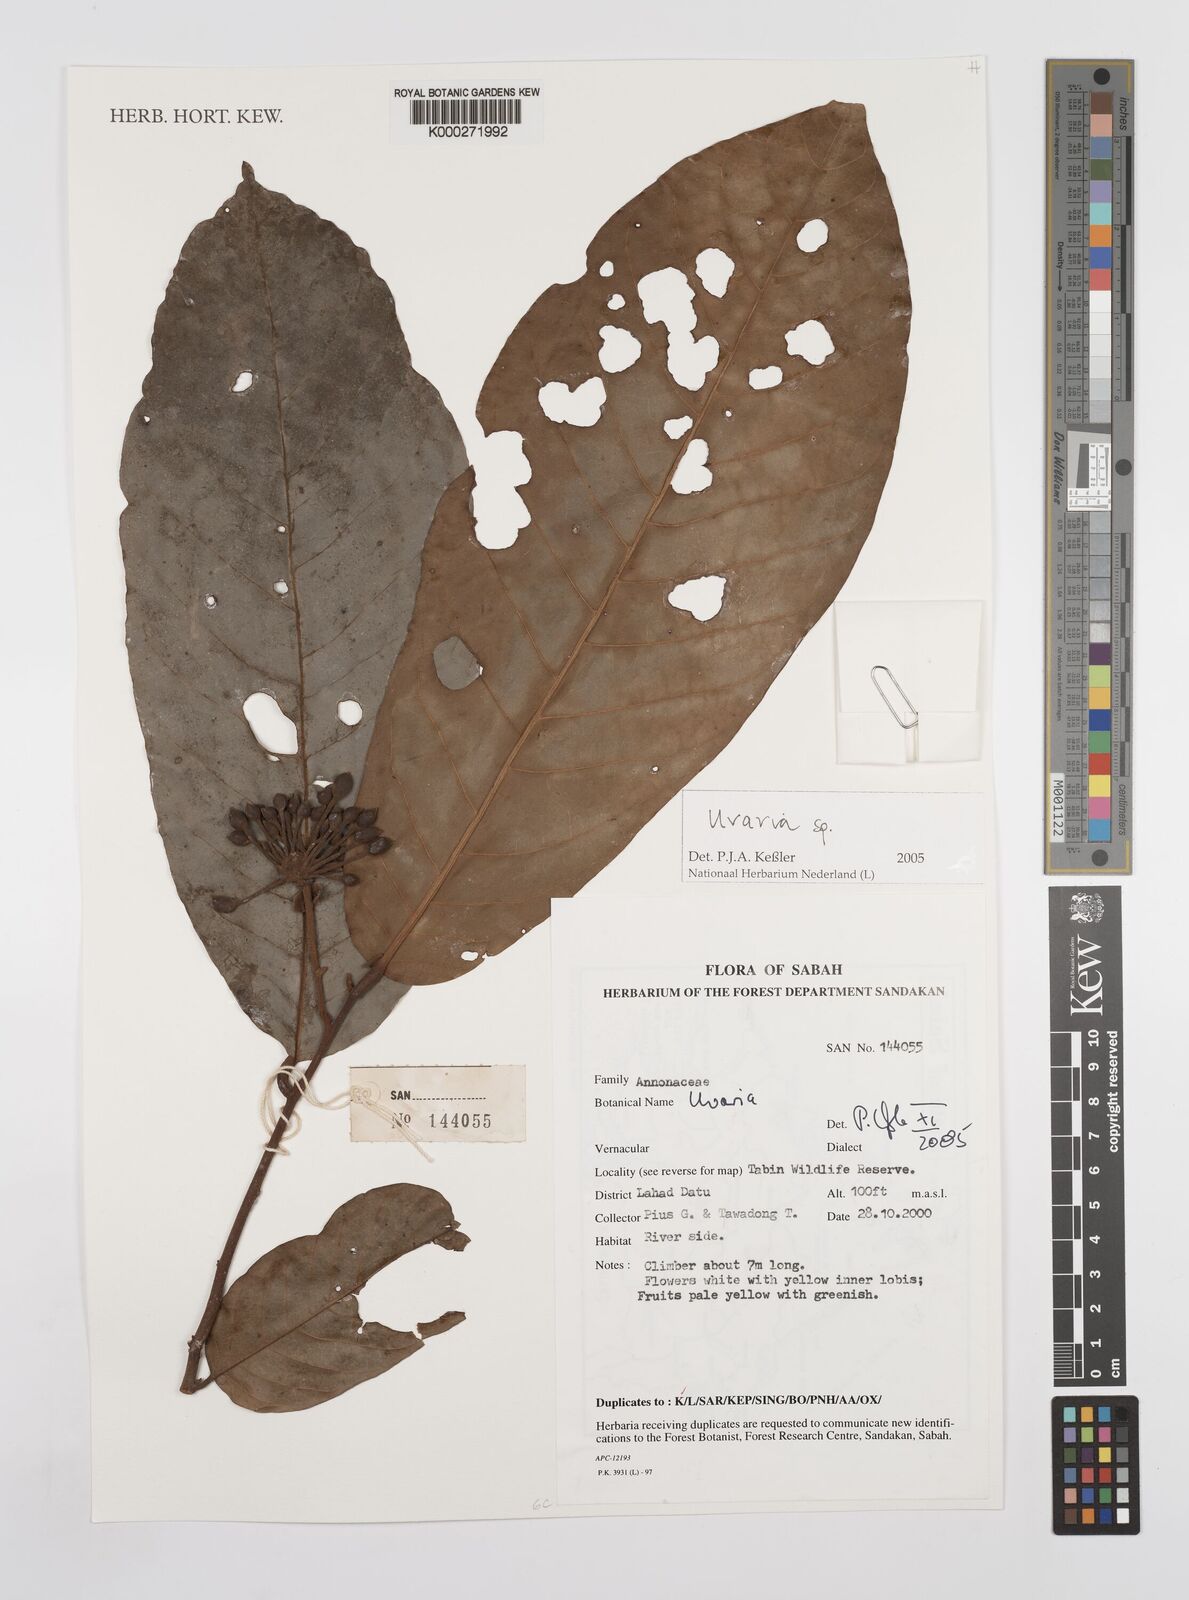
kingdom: Plantae
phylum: Tracheophyta
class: Magnoliopsida
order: Magnoliales
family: Annonaceae
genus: Uvaria
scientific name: Uvaria
